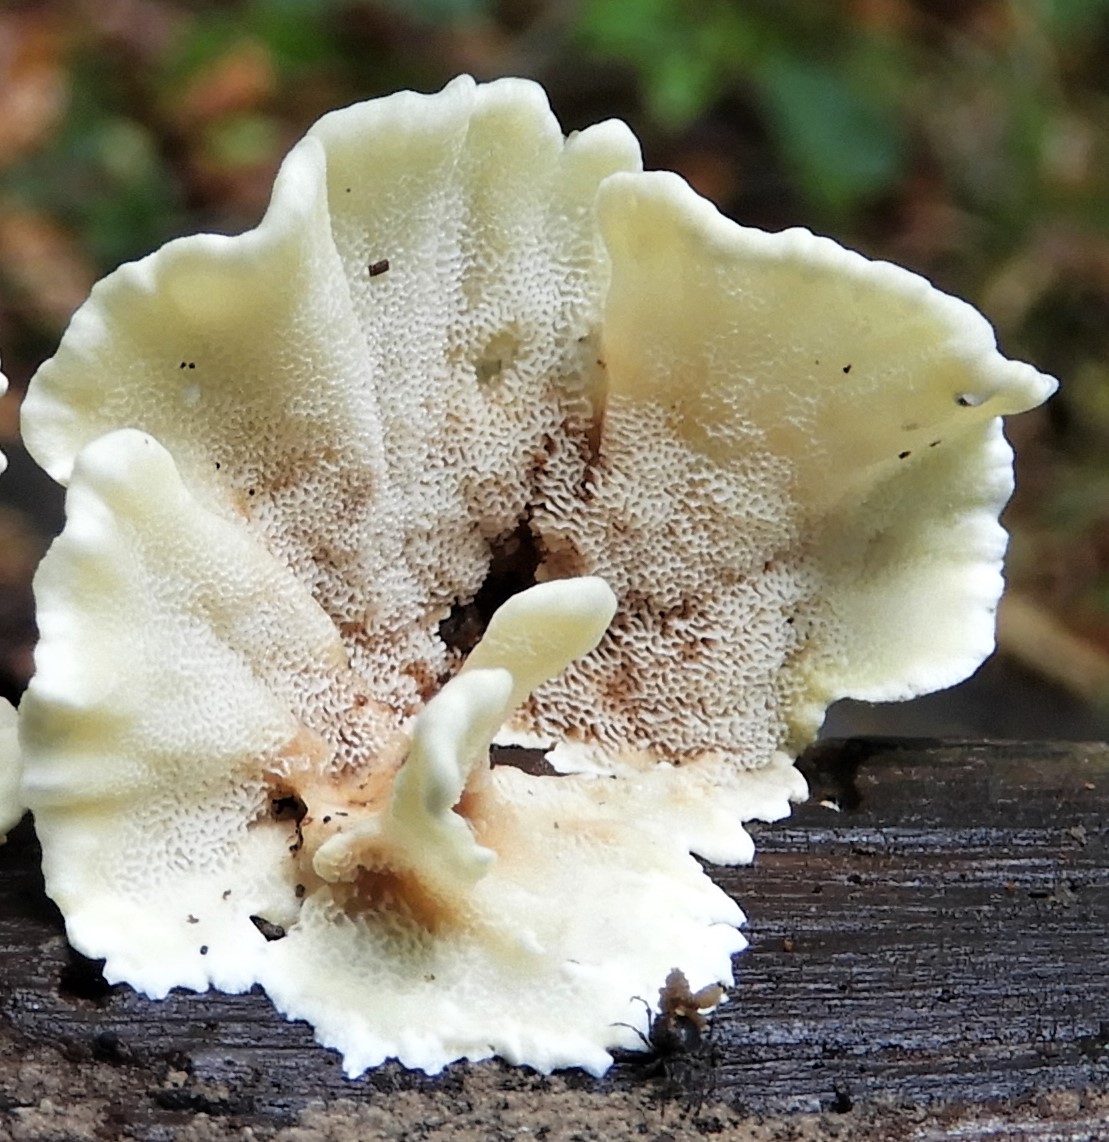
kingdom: Fungi
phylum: Basidiomycota
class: Agaricomycetes
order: Polyporales
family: Steccherinaceae
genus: Antrodiella
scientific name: Antrodiella
